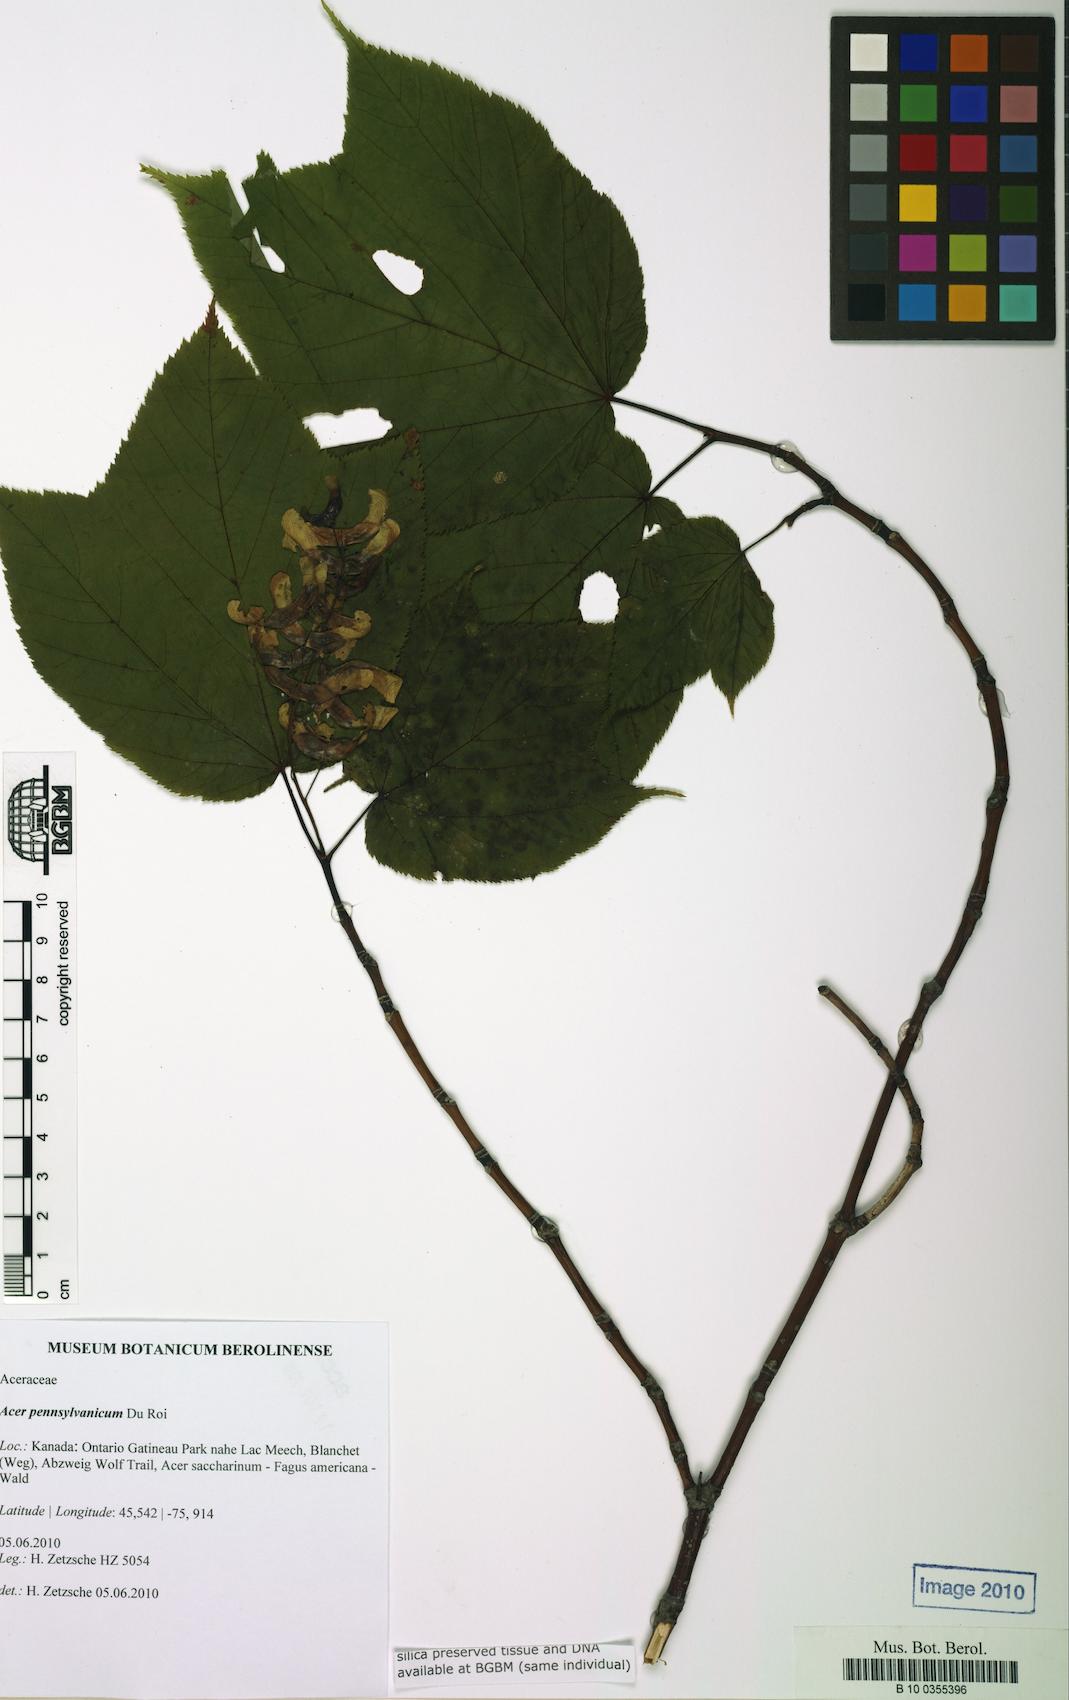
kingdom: Plantae
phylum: Tracheophyta
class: Magnoliopsida
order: Sapindales
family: Sapindaceae
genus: Acer
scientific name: Acer pensylvanicum
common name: Moosewood
